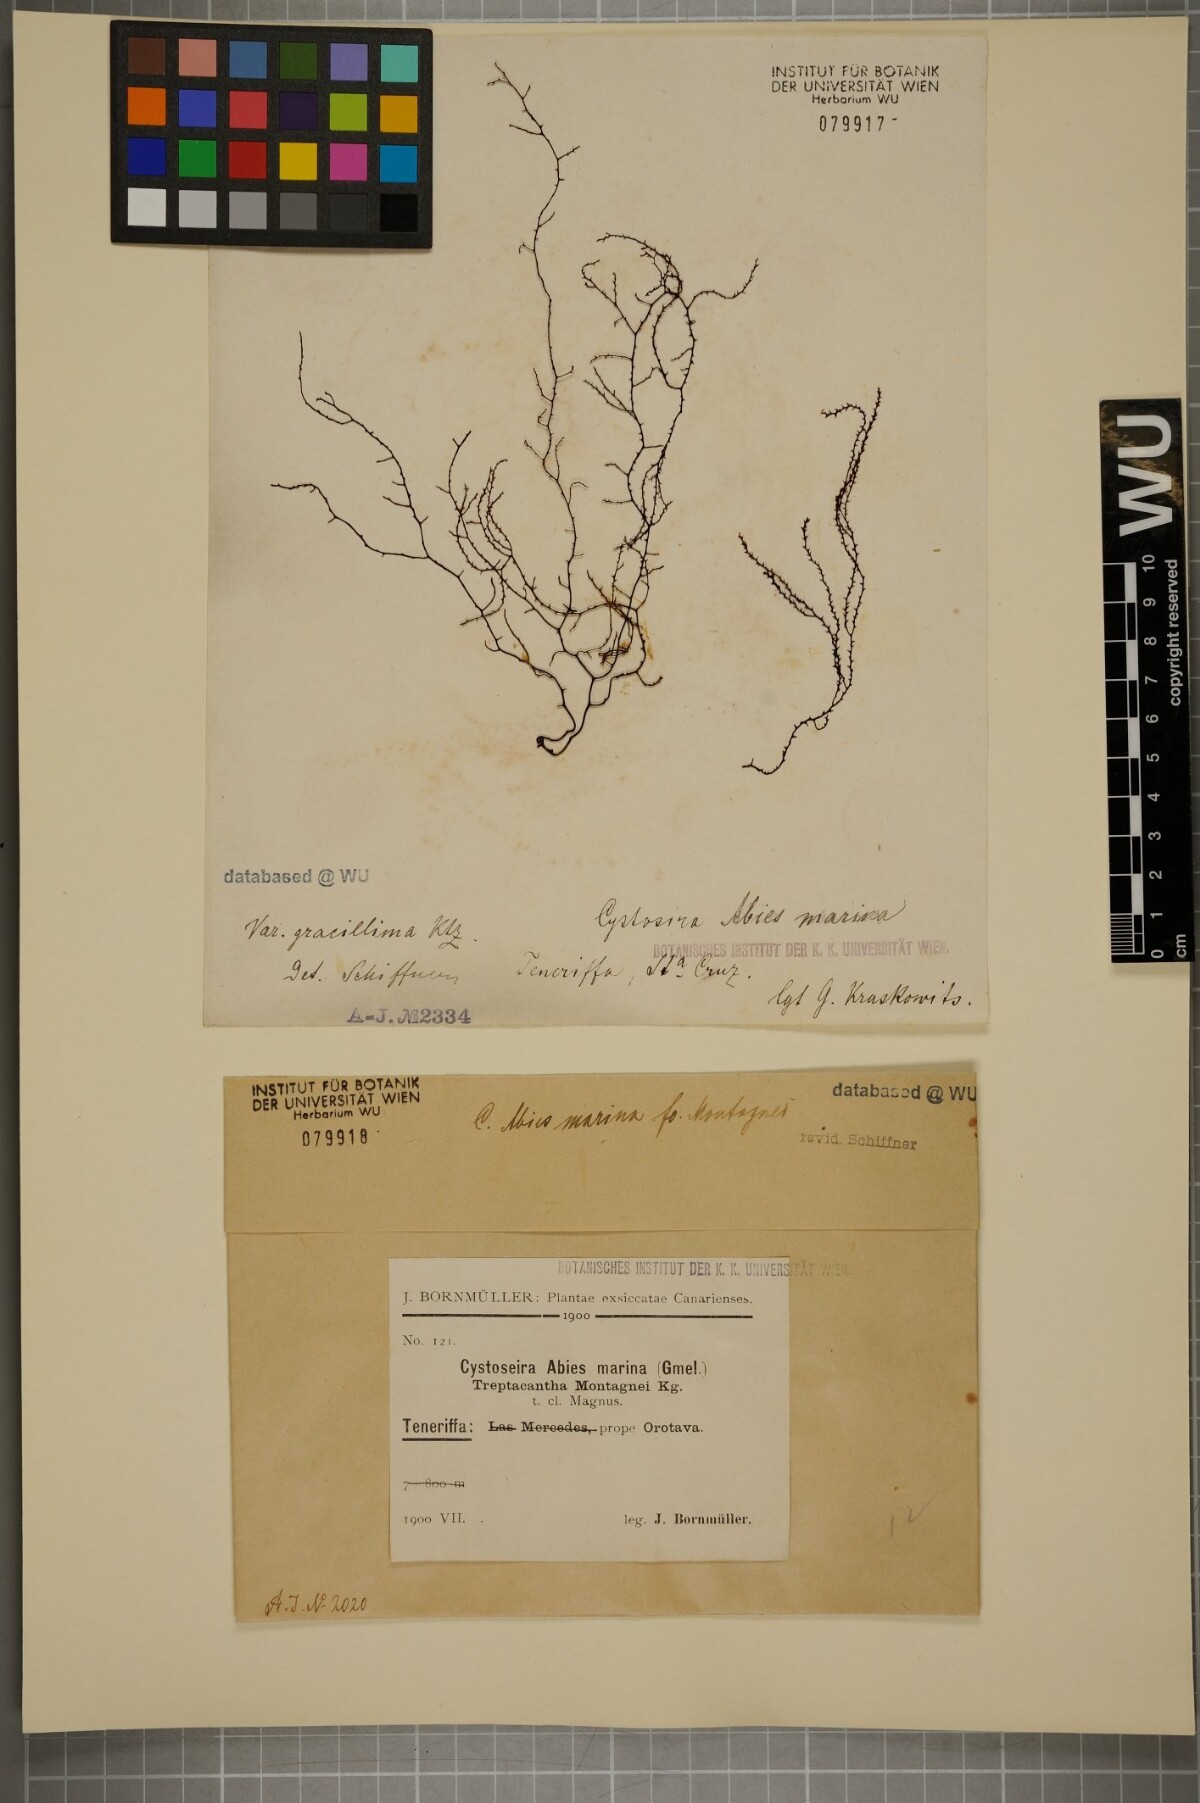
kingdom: Chromista
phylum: Ochrophyta
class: Phaeophyceae
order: Fucales
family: Sargassaceae
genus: Cystoseira
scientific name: Cystoseira Gongolaria abies-marina
